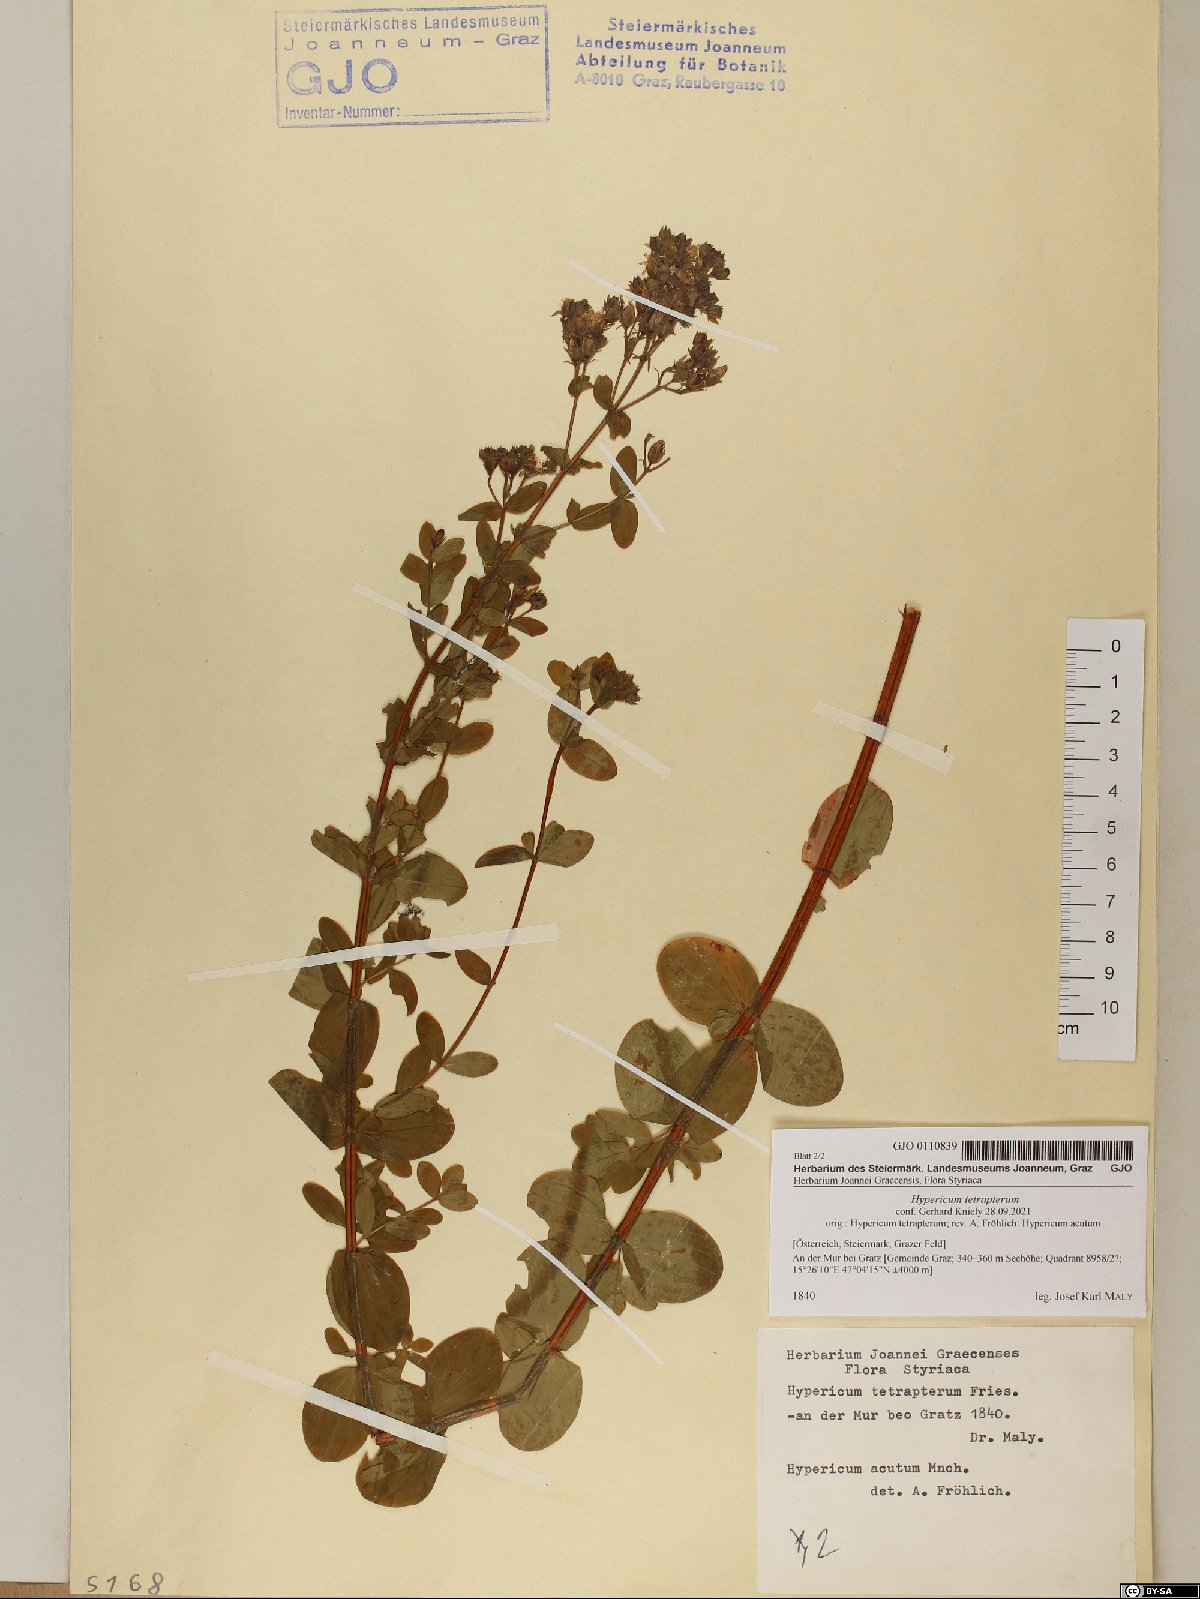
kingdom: Plantae
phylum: Tracheophyta
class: Magnoliopsida
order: Malpighiales
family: Hypericaceae
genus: Hypericum
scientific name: Hypericum tetrapterum
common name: Square-stalked st. john's-wort
